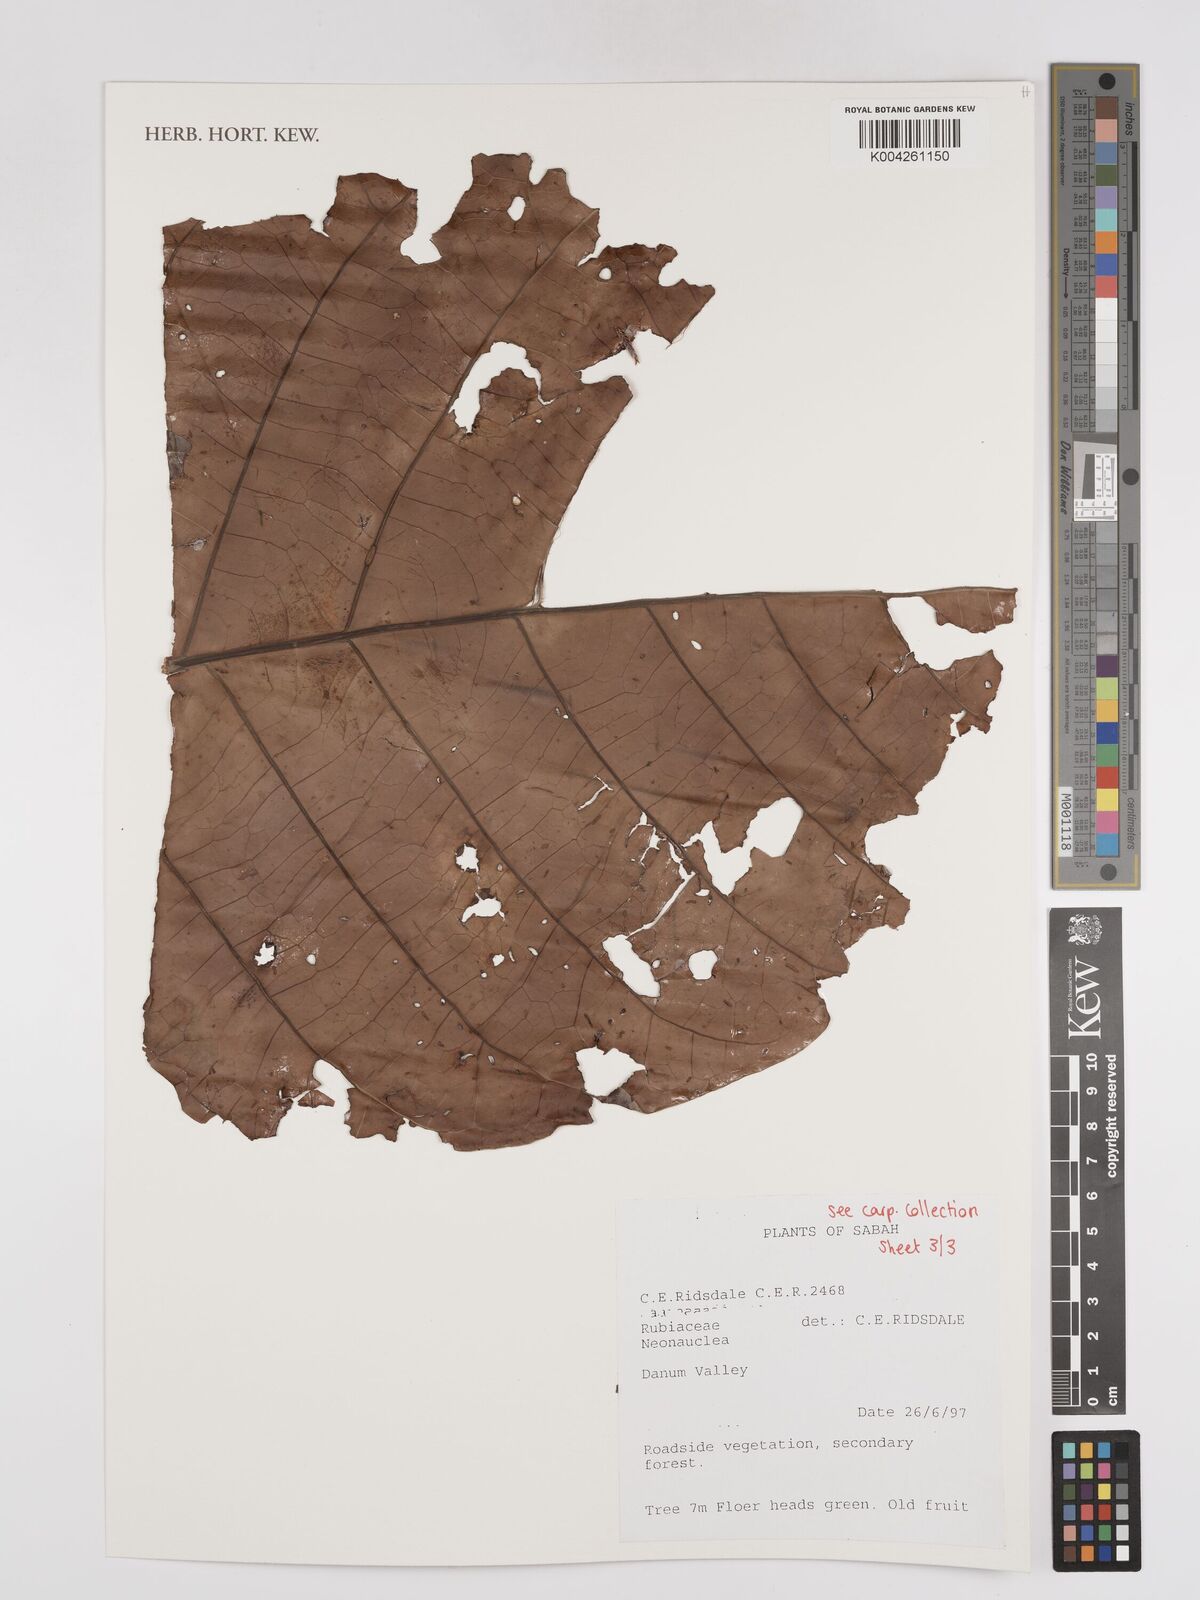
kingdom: Plantae
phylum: Tracheophyta
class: Magnoliopsida
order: Gentianales
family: Rubiaceae
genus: Neonauclea
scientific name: Neonauclea
